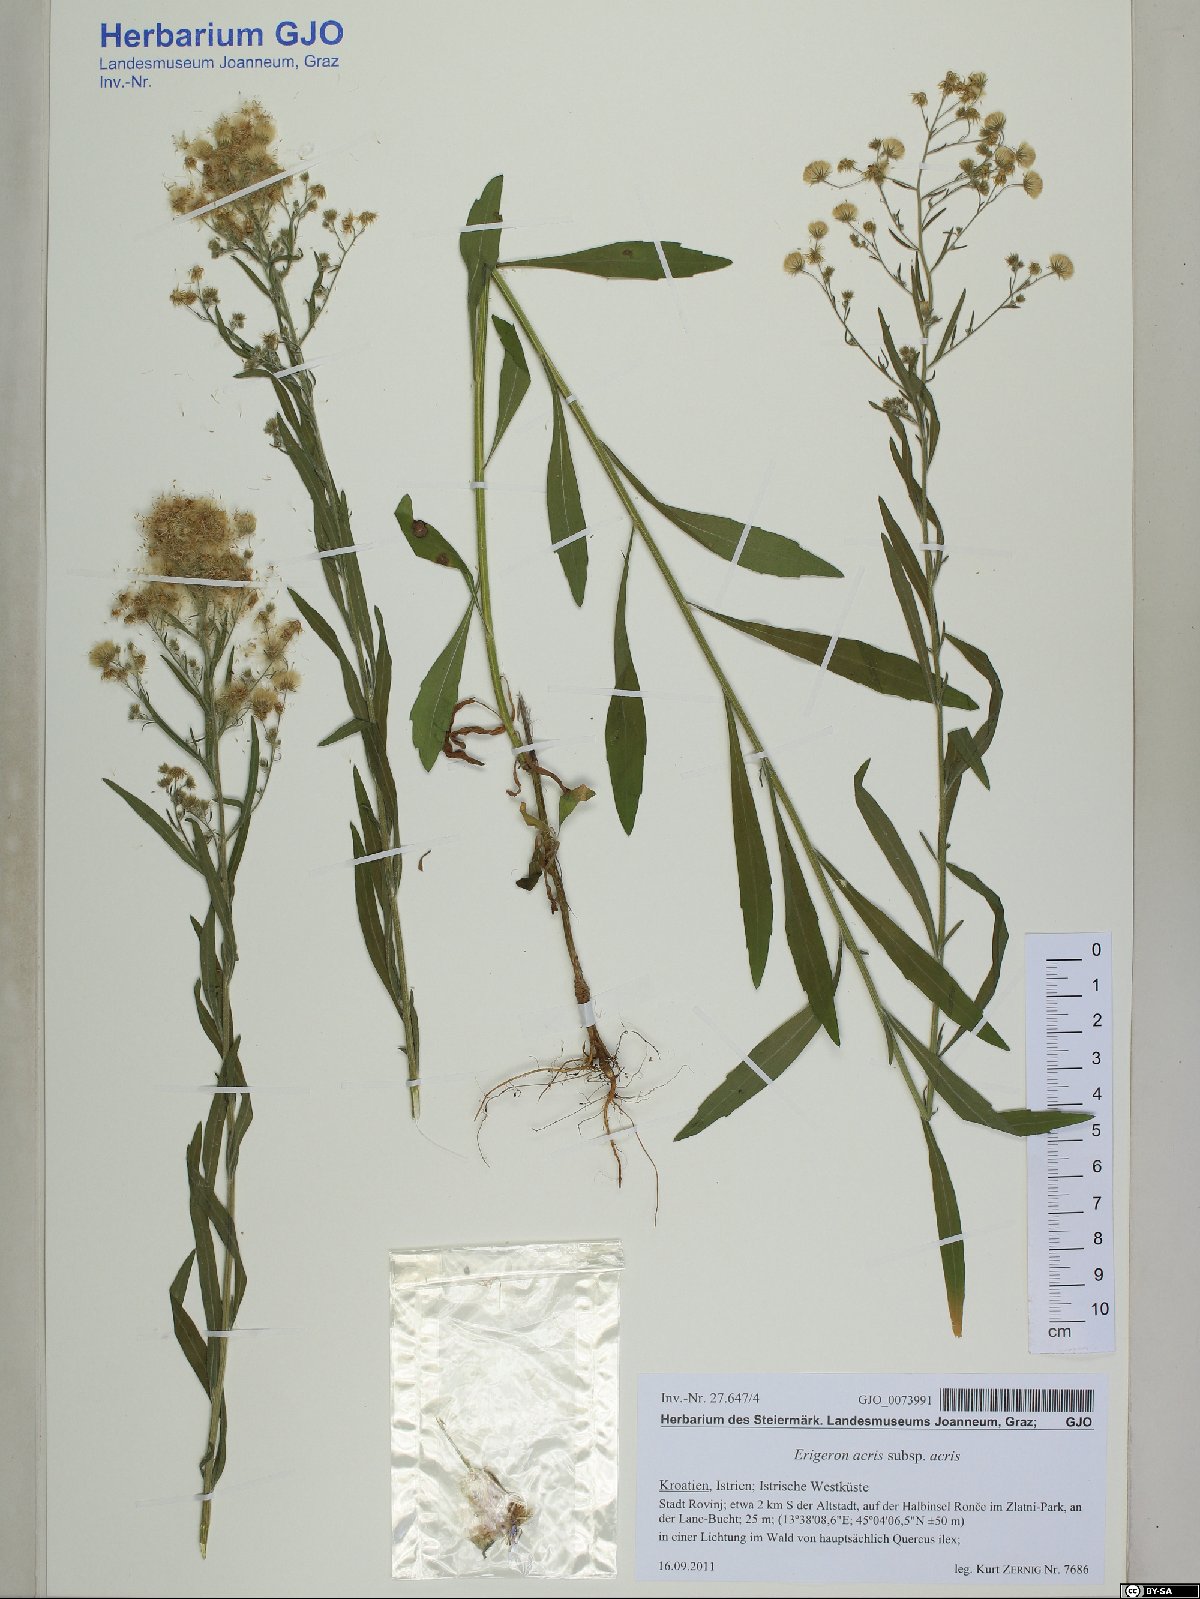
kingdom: Plantae
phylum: Tracheophyta
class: Magnoliopsida
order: Asterales
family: Asteraceae
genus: Erigeron
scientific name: Erigeron acris
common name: Blue fleabane
